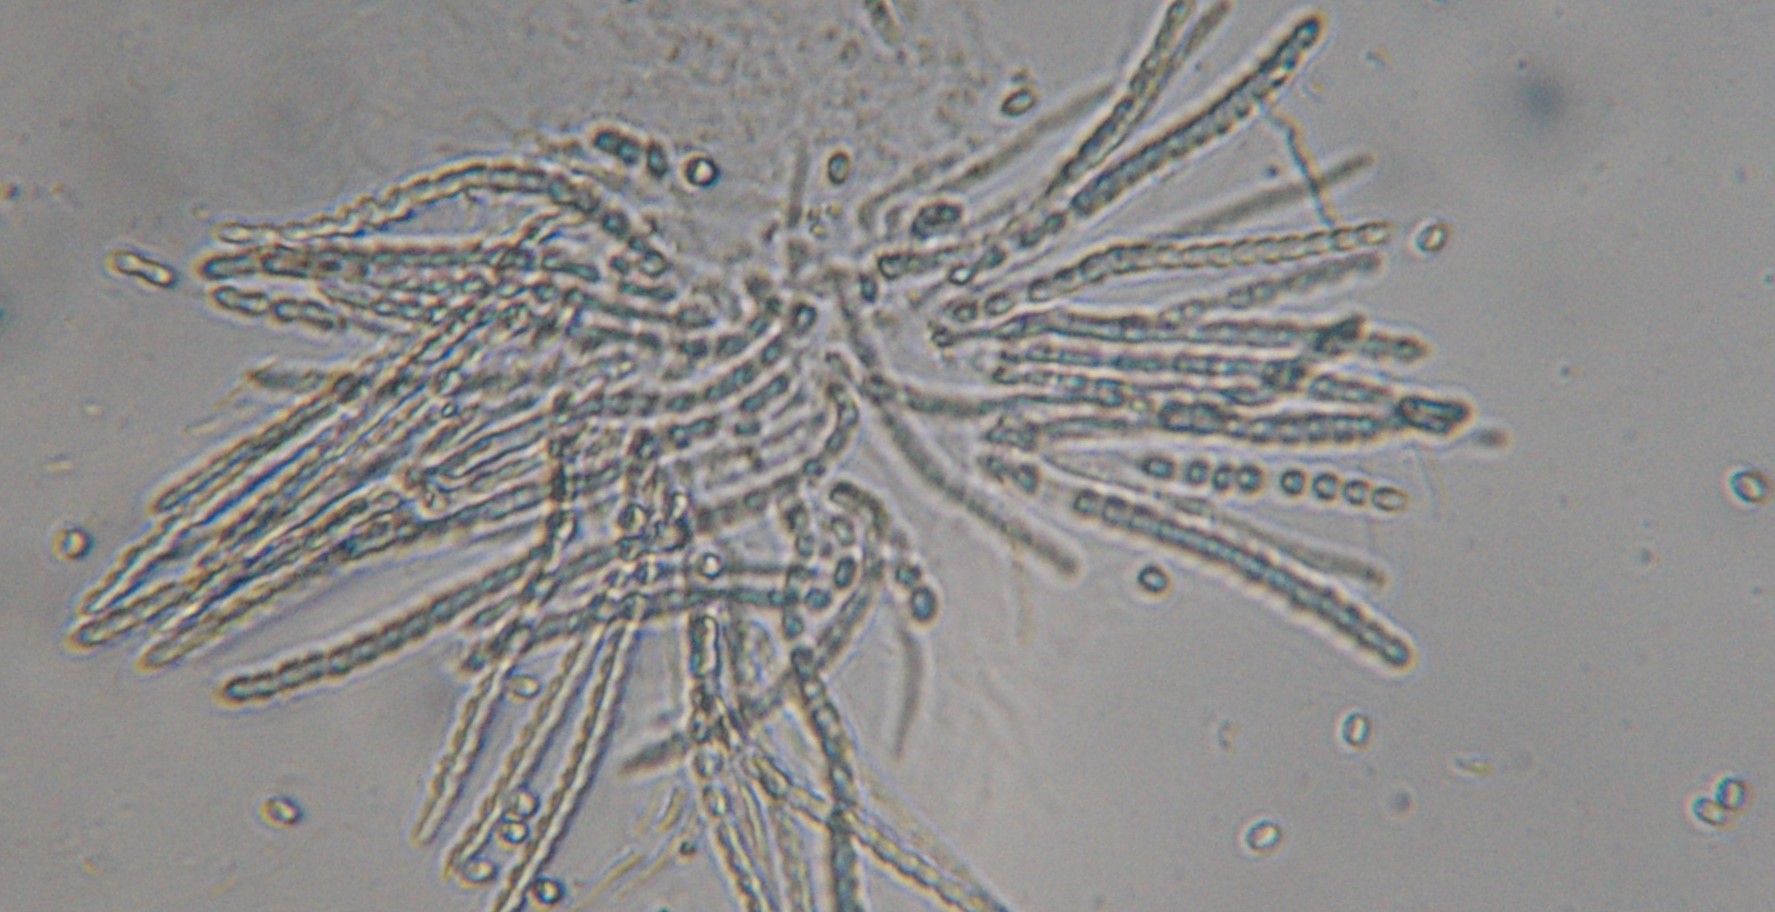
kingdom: Fungi
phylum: Ascomycota
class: Sordariomycetes
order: Hypocreales
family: Hypocreaceae
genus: Trichoderma
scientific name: Trichoderma pulvinatum
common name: snyltende kødkerne
